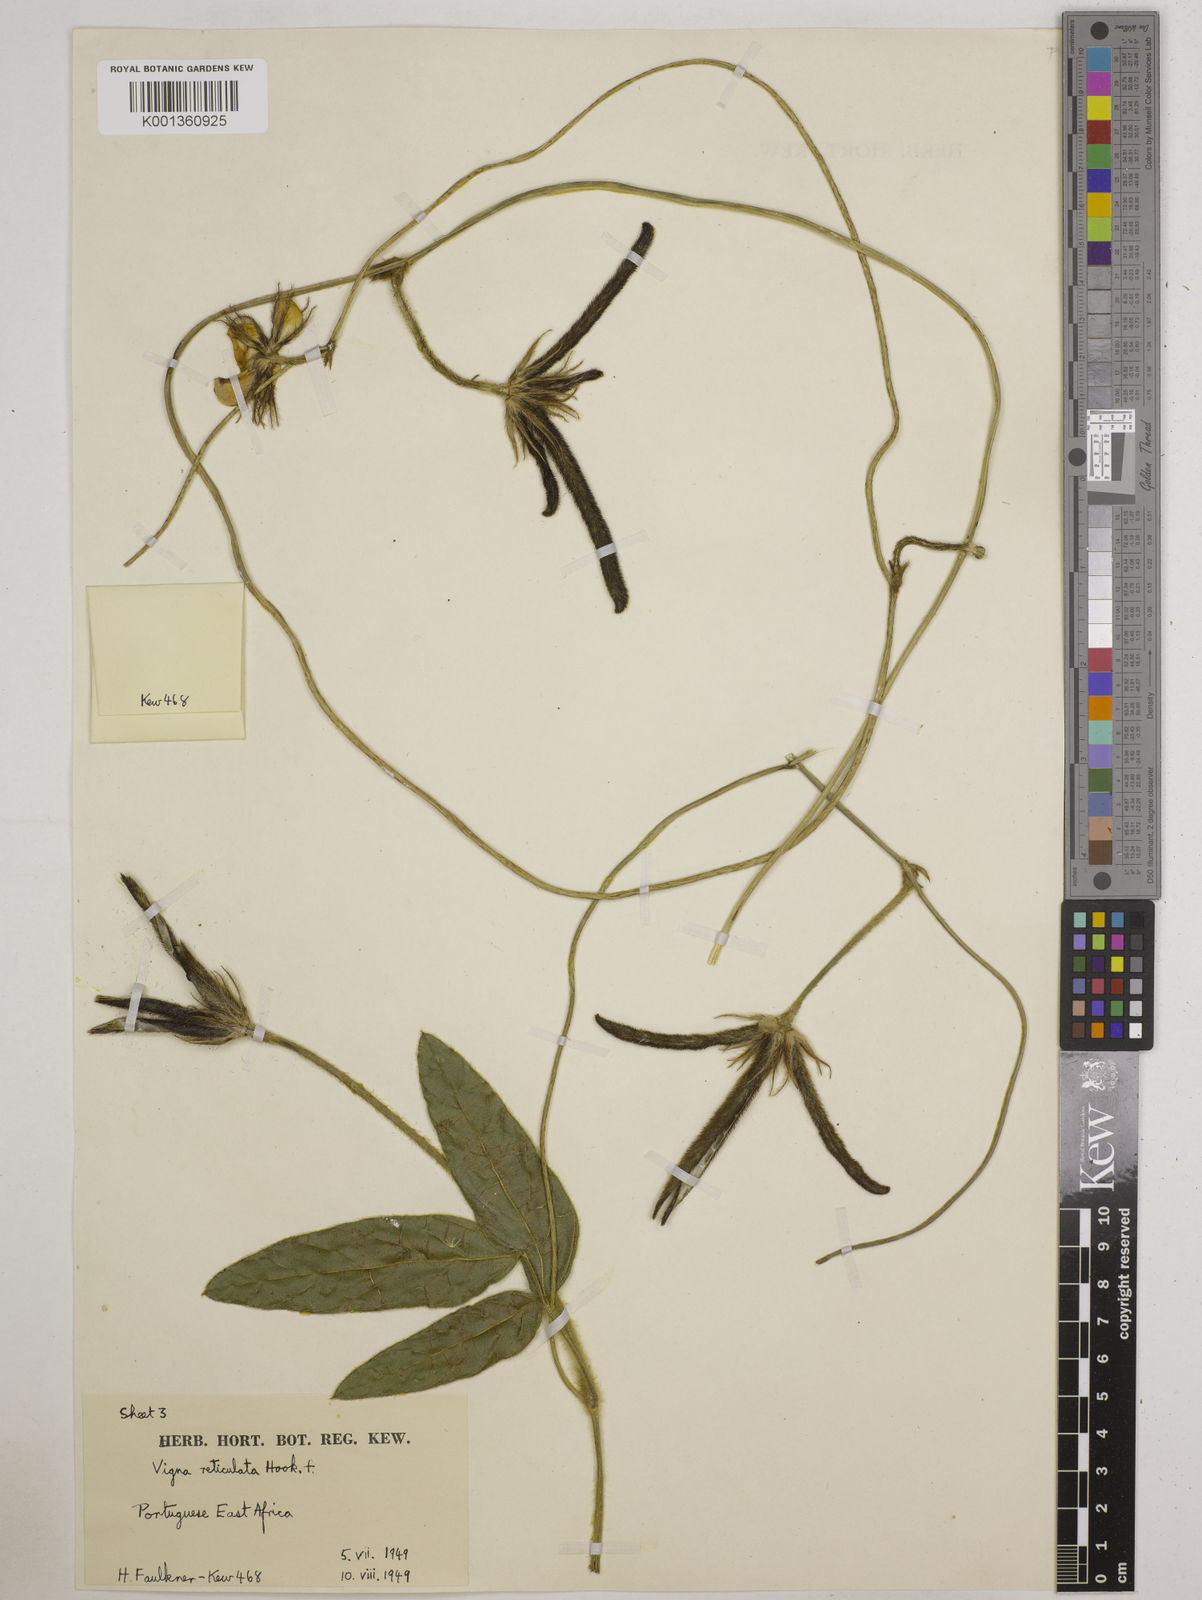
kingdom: Plantae
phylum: Tracheophyta
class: Magnoliopsida
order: Fabales
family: Fabaceae
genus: Vigna
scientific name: Vigna reticulata
